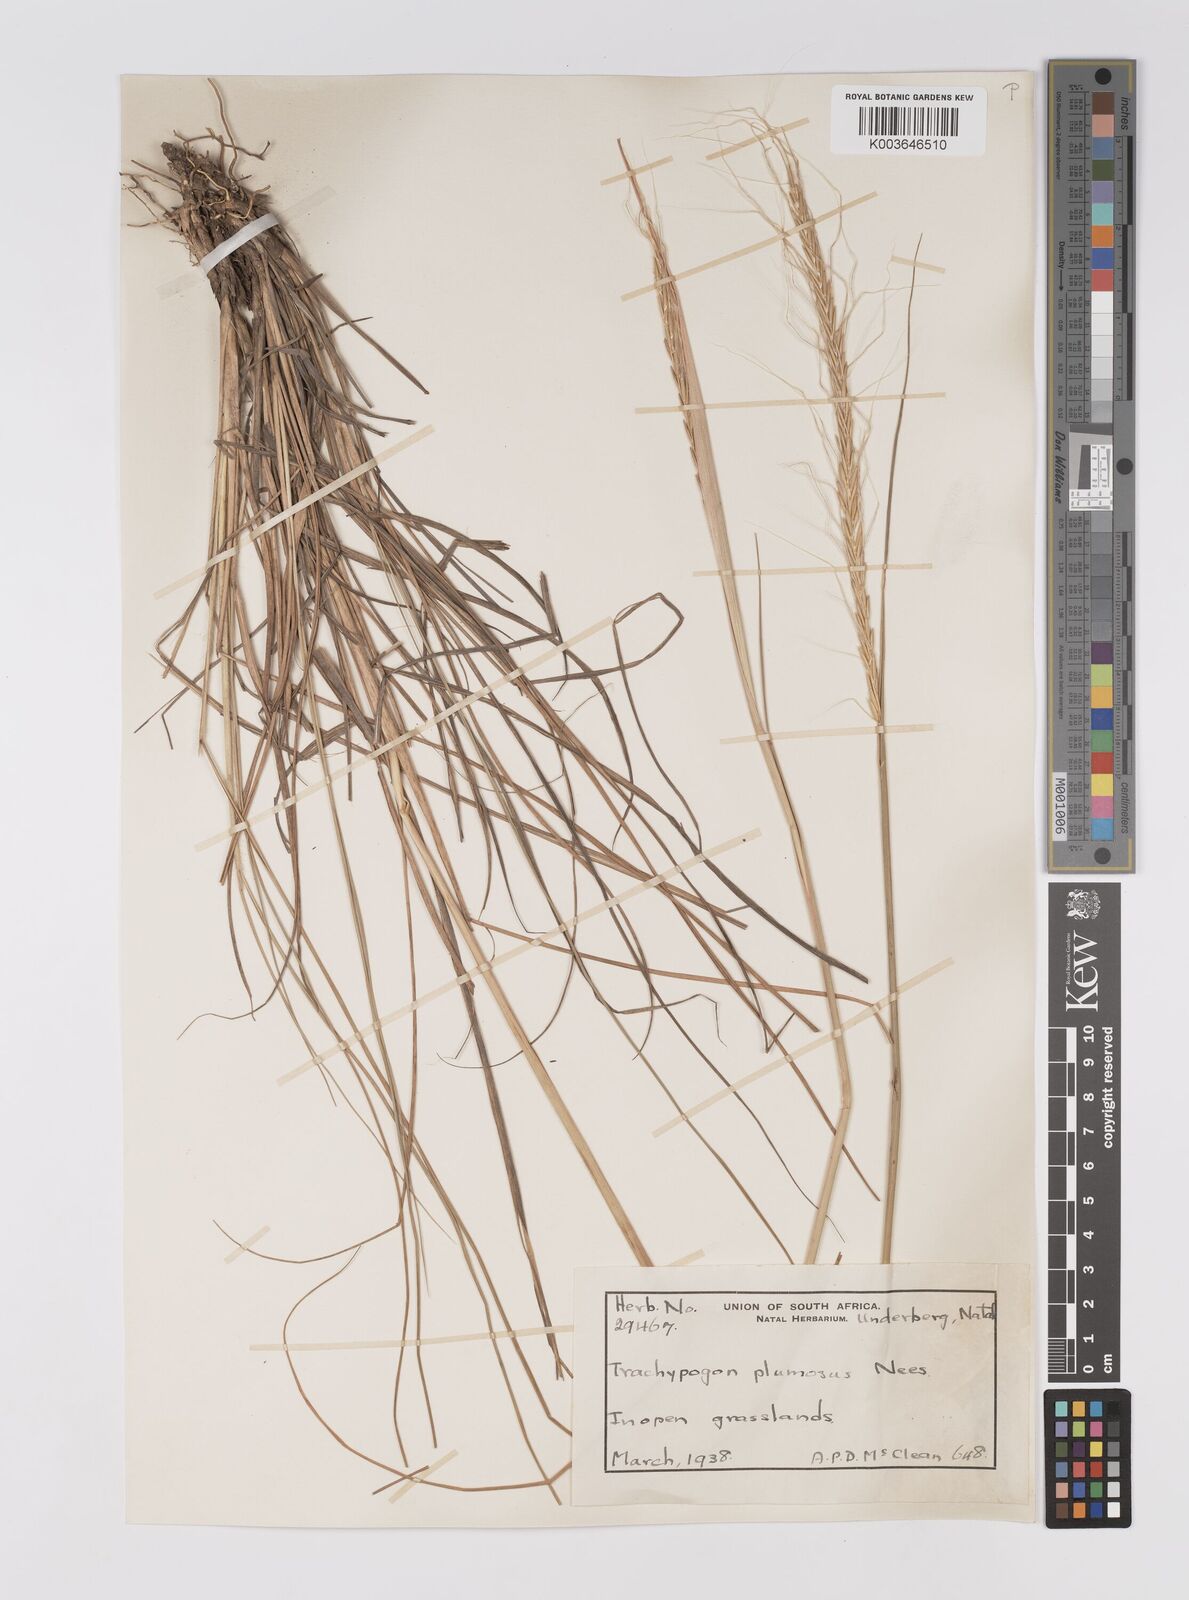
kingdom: Plantae
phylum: Tracheophyta
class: Liliopsida
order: Poales
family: Poaceae
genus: Trachypogon
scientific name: Trachypogon spicatus
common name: Crinkle-awn
